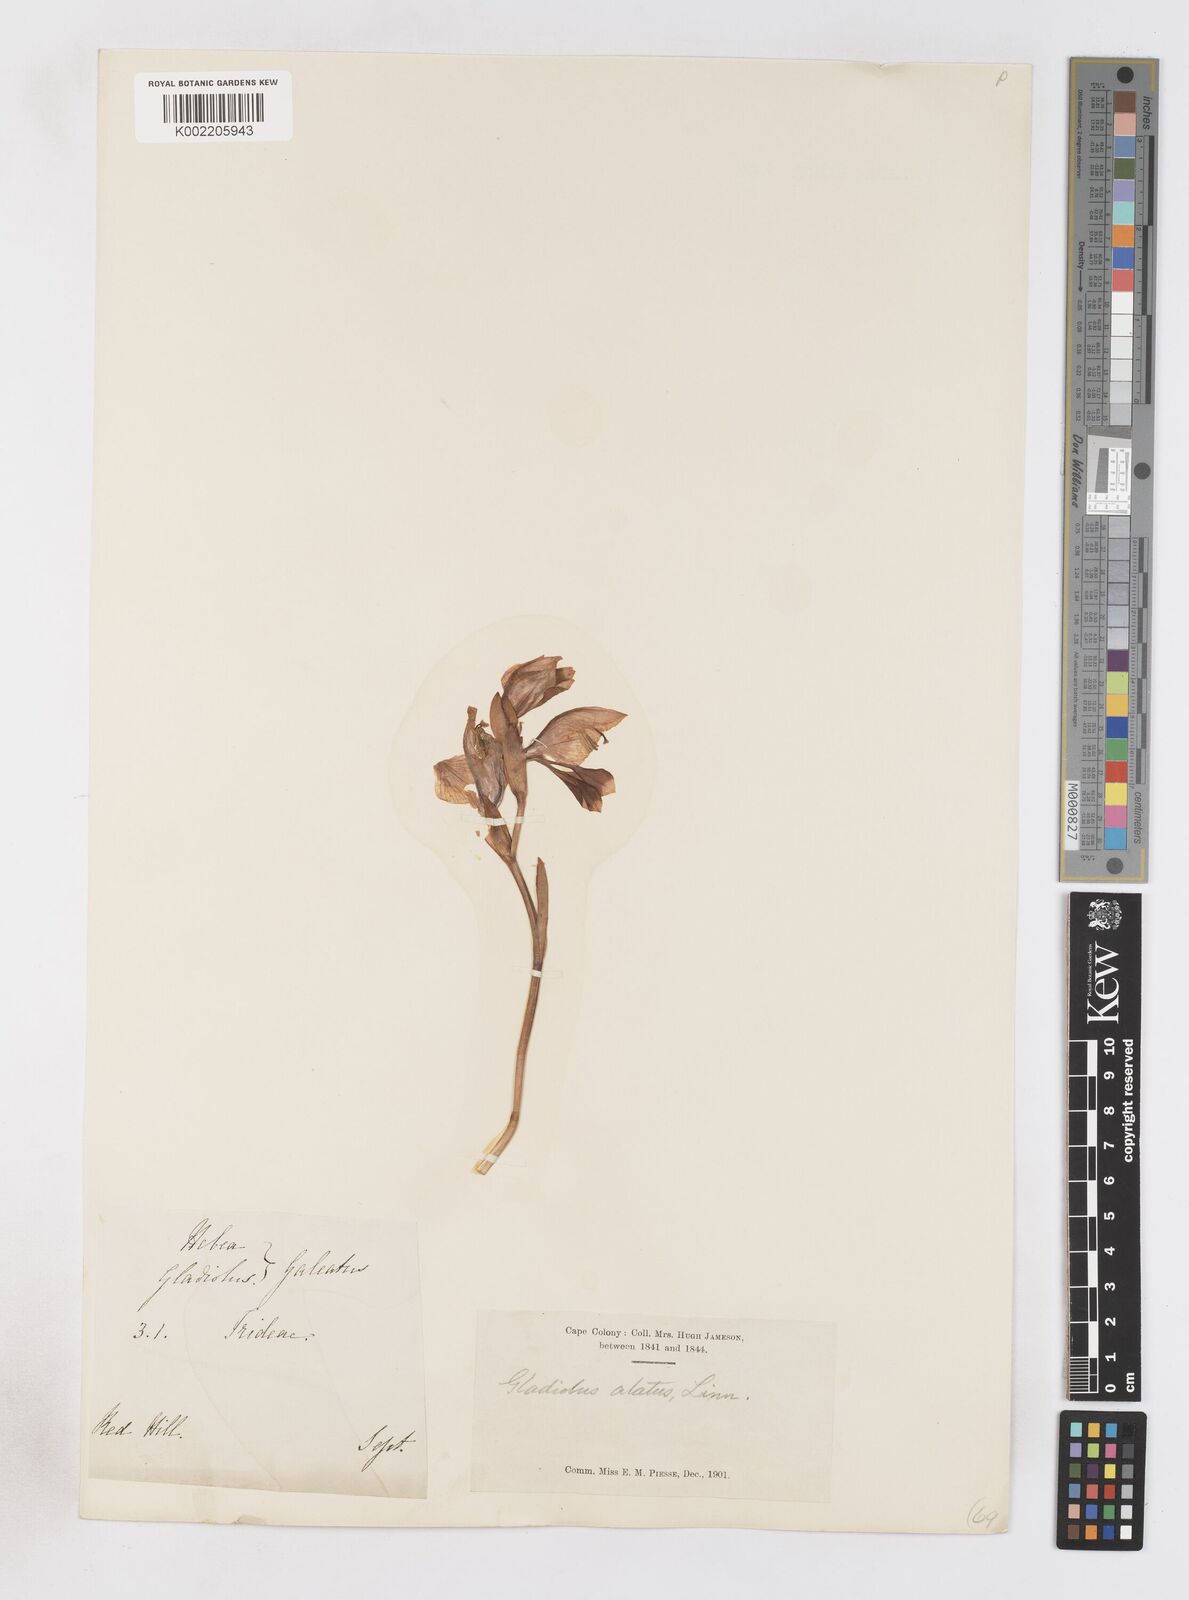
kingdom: Plantae
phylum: Tracheophyta
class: Liliopsida
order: Asparagales
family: Iridaceae
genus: Gladiolus
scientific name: Gladiolus alatus
